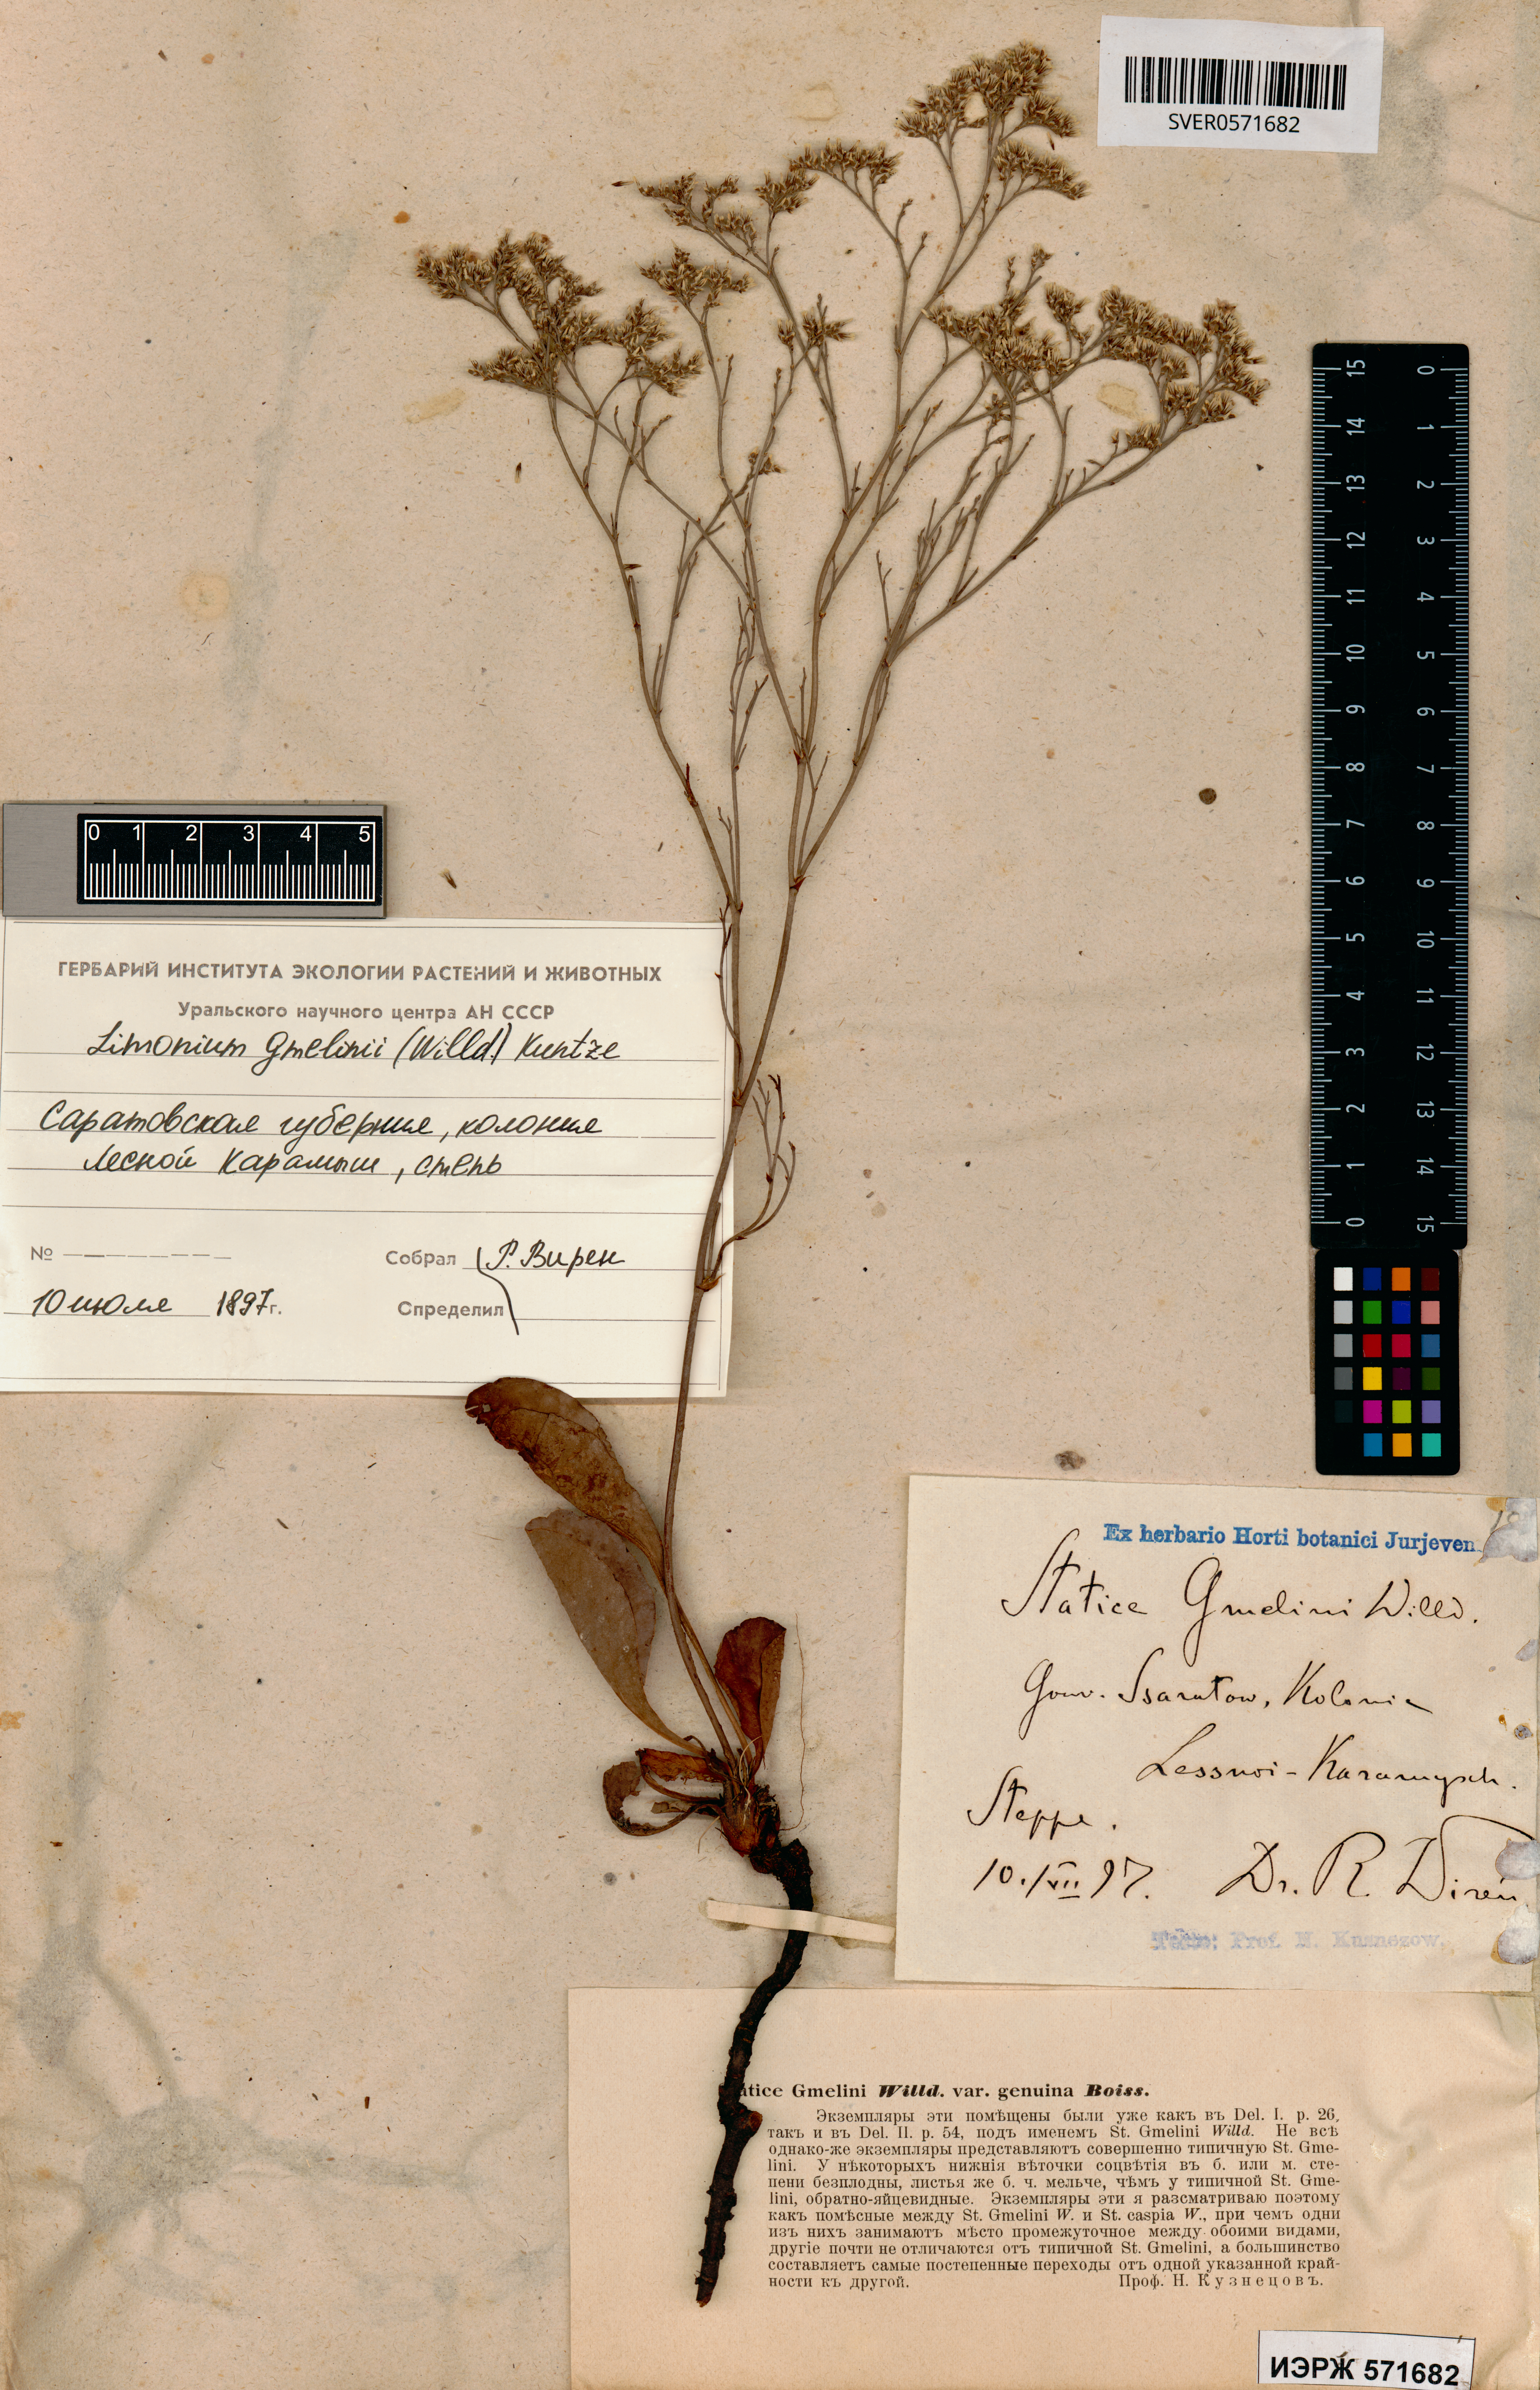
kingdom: Plantae
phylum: Tracheophyta
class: Magnoliopsida
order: Caryophyllales
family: Plumbaginaceae
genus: Limonium
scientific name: Limonium gmelini
